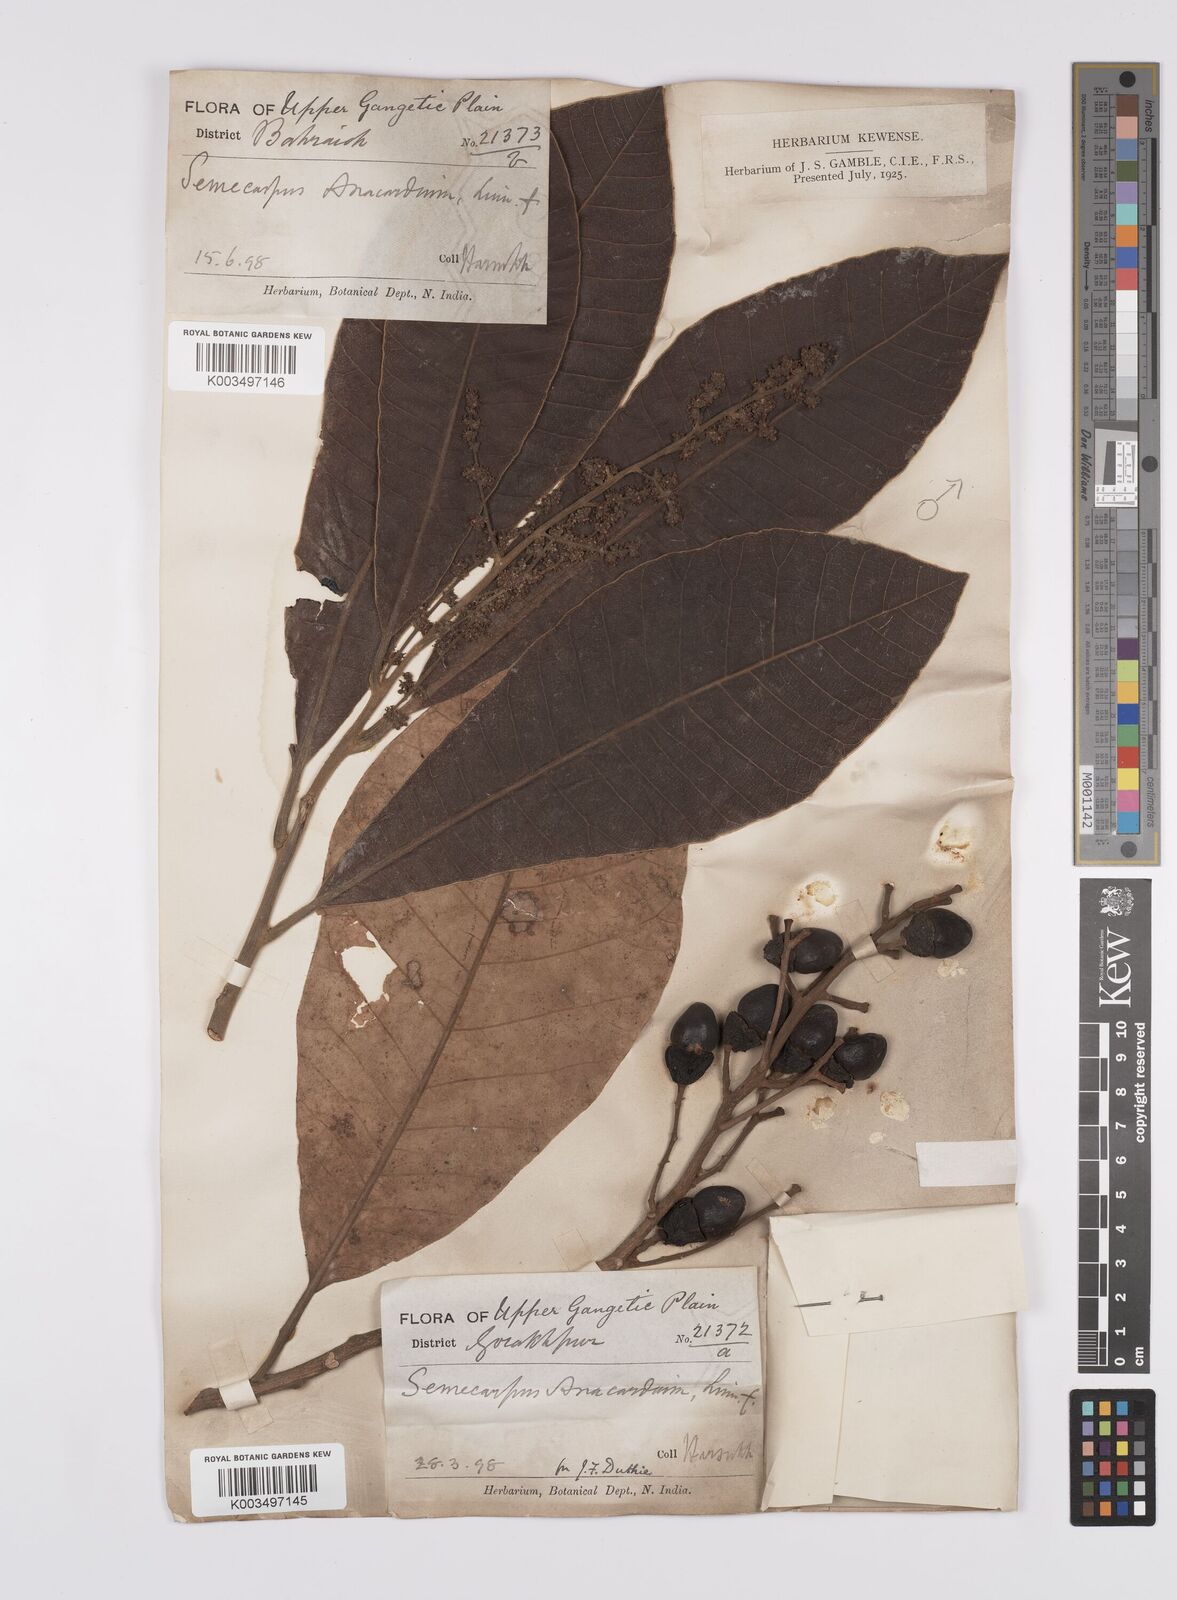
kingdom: Plantae
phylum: Tracheophyta
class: Magnoliopsida
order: Sapindales
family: Anacardiaceae
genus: Semecarpus
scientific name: Semecarpus
